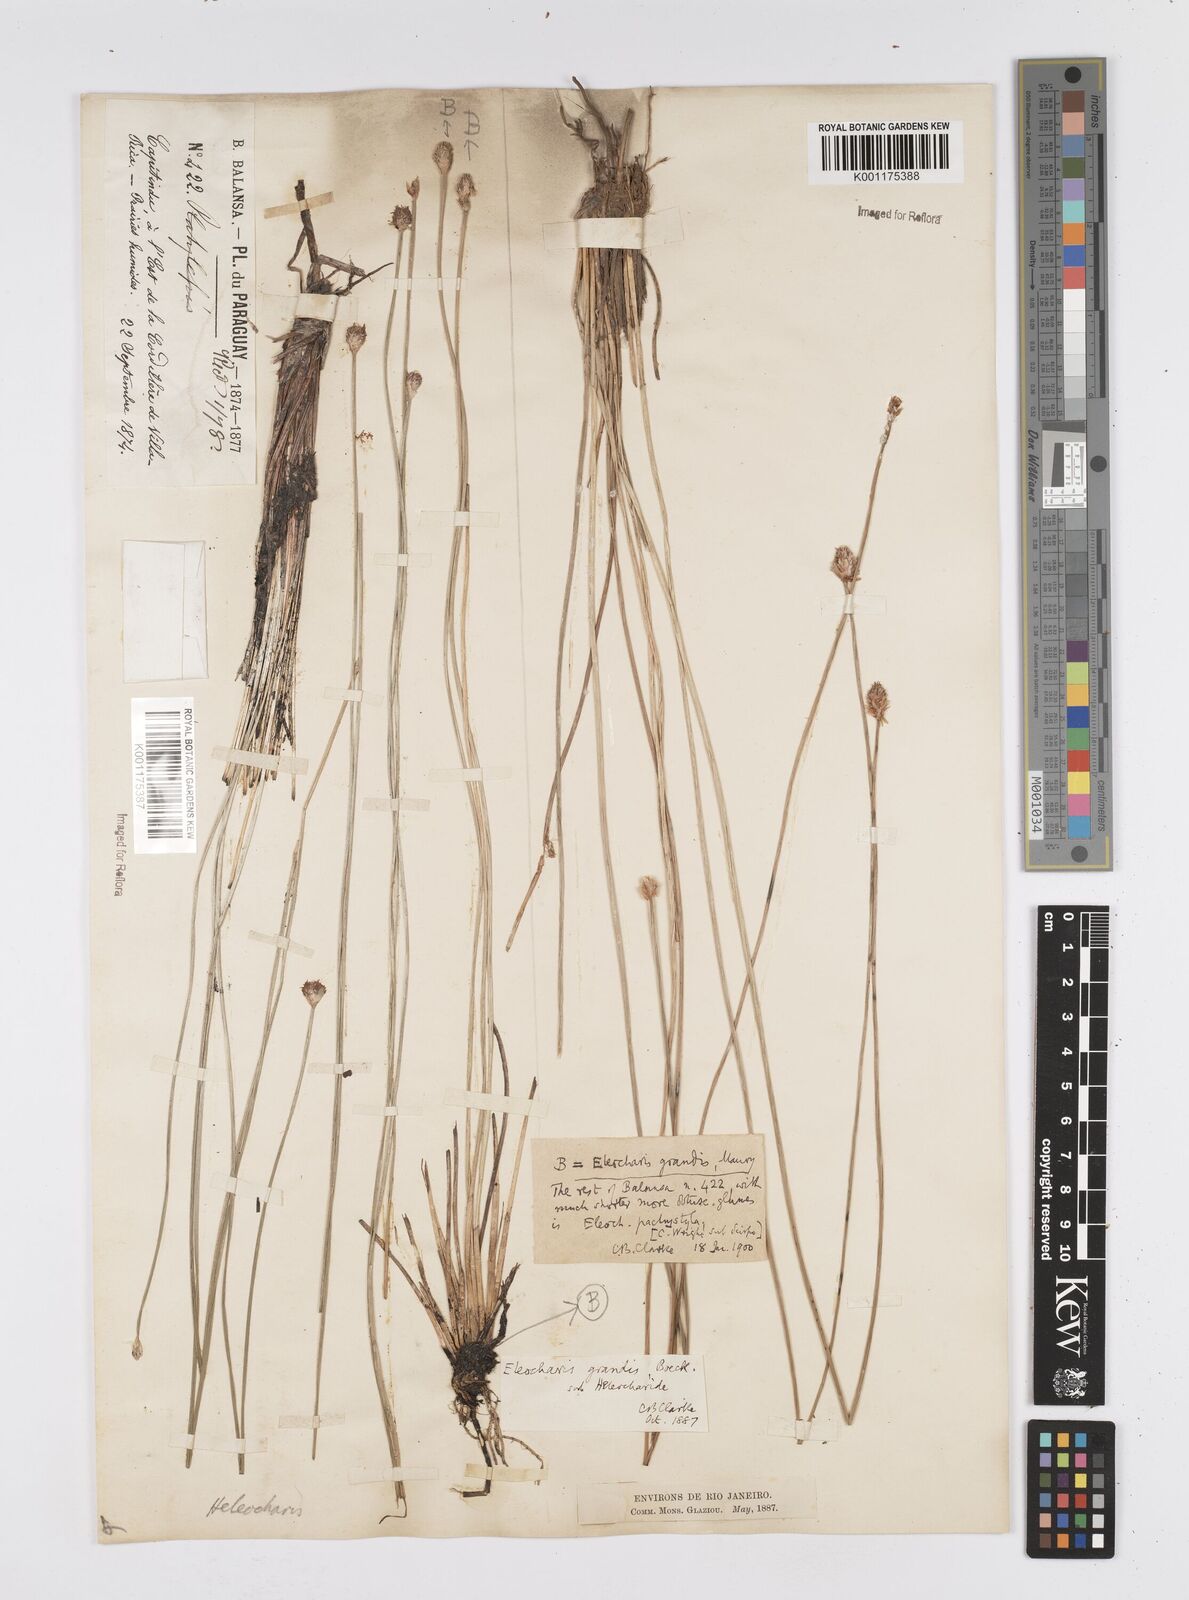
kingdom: Plantae
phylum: Tracheophyta
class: Liliopsida
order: Poales
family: Cyperaceae
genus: Eleocharis
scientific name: Eleocharis nudipes
